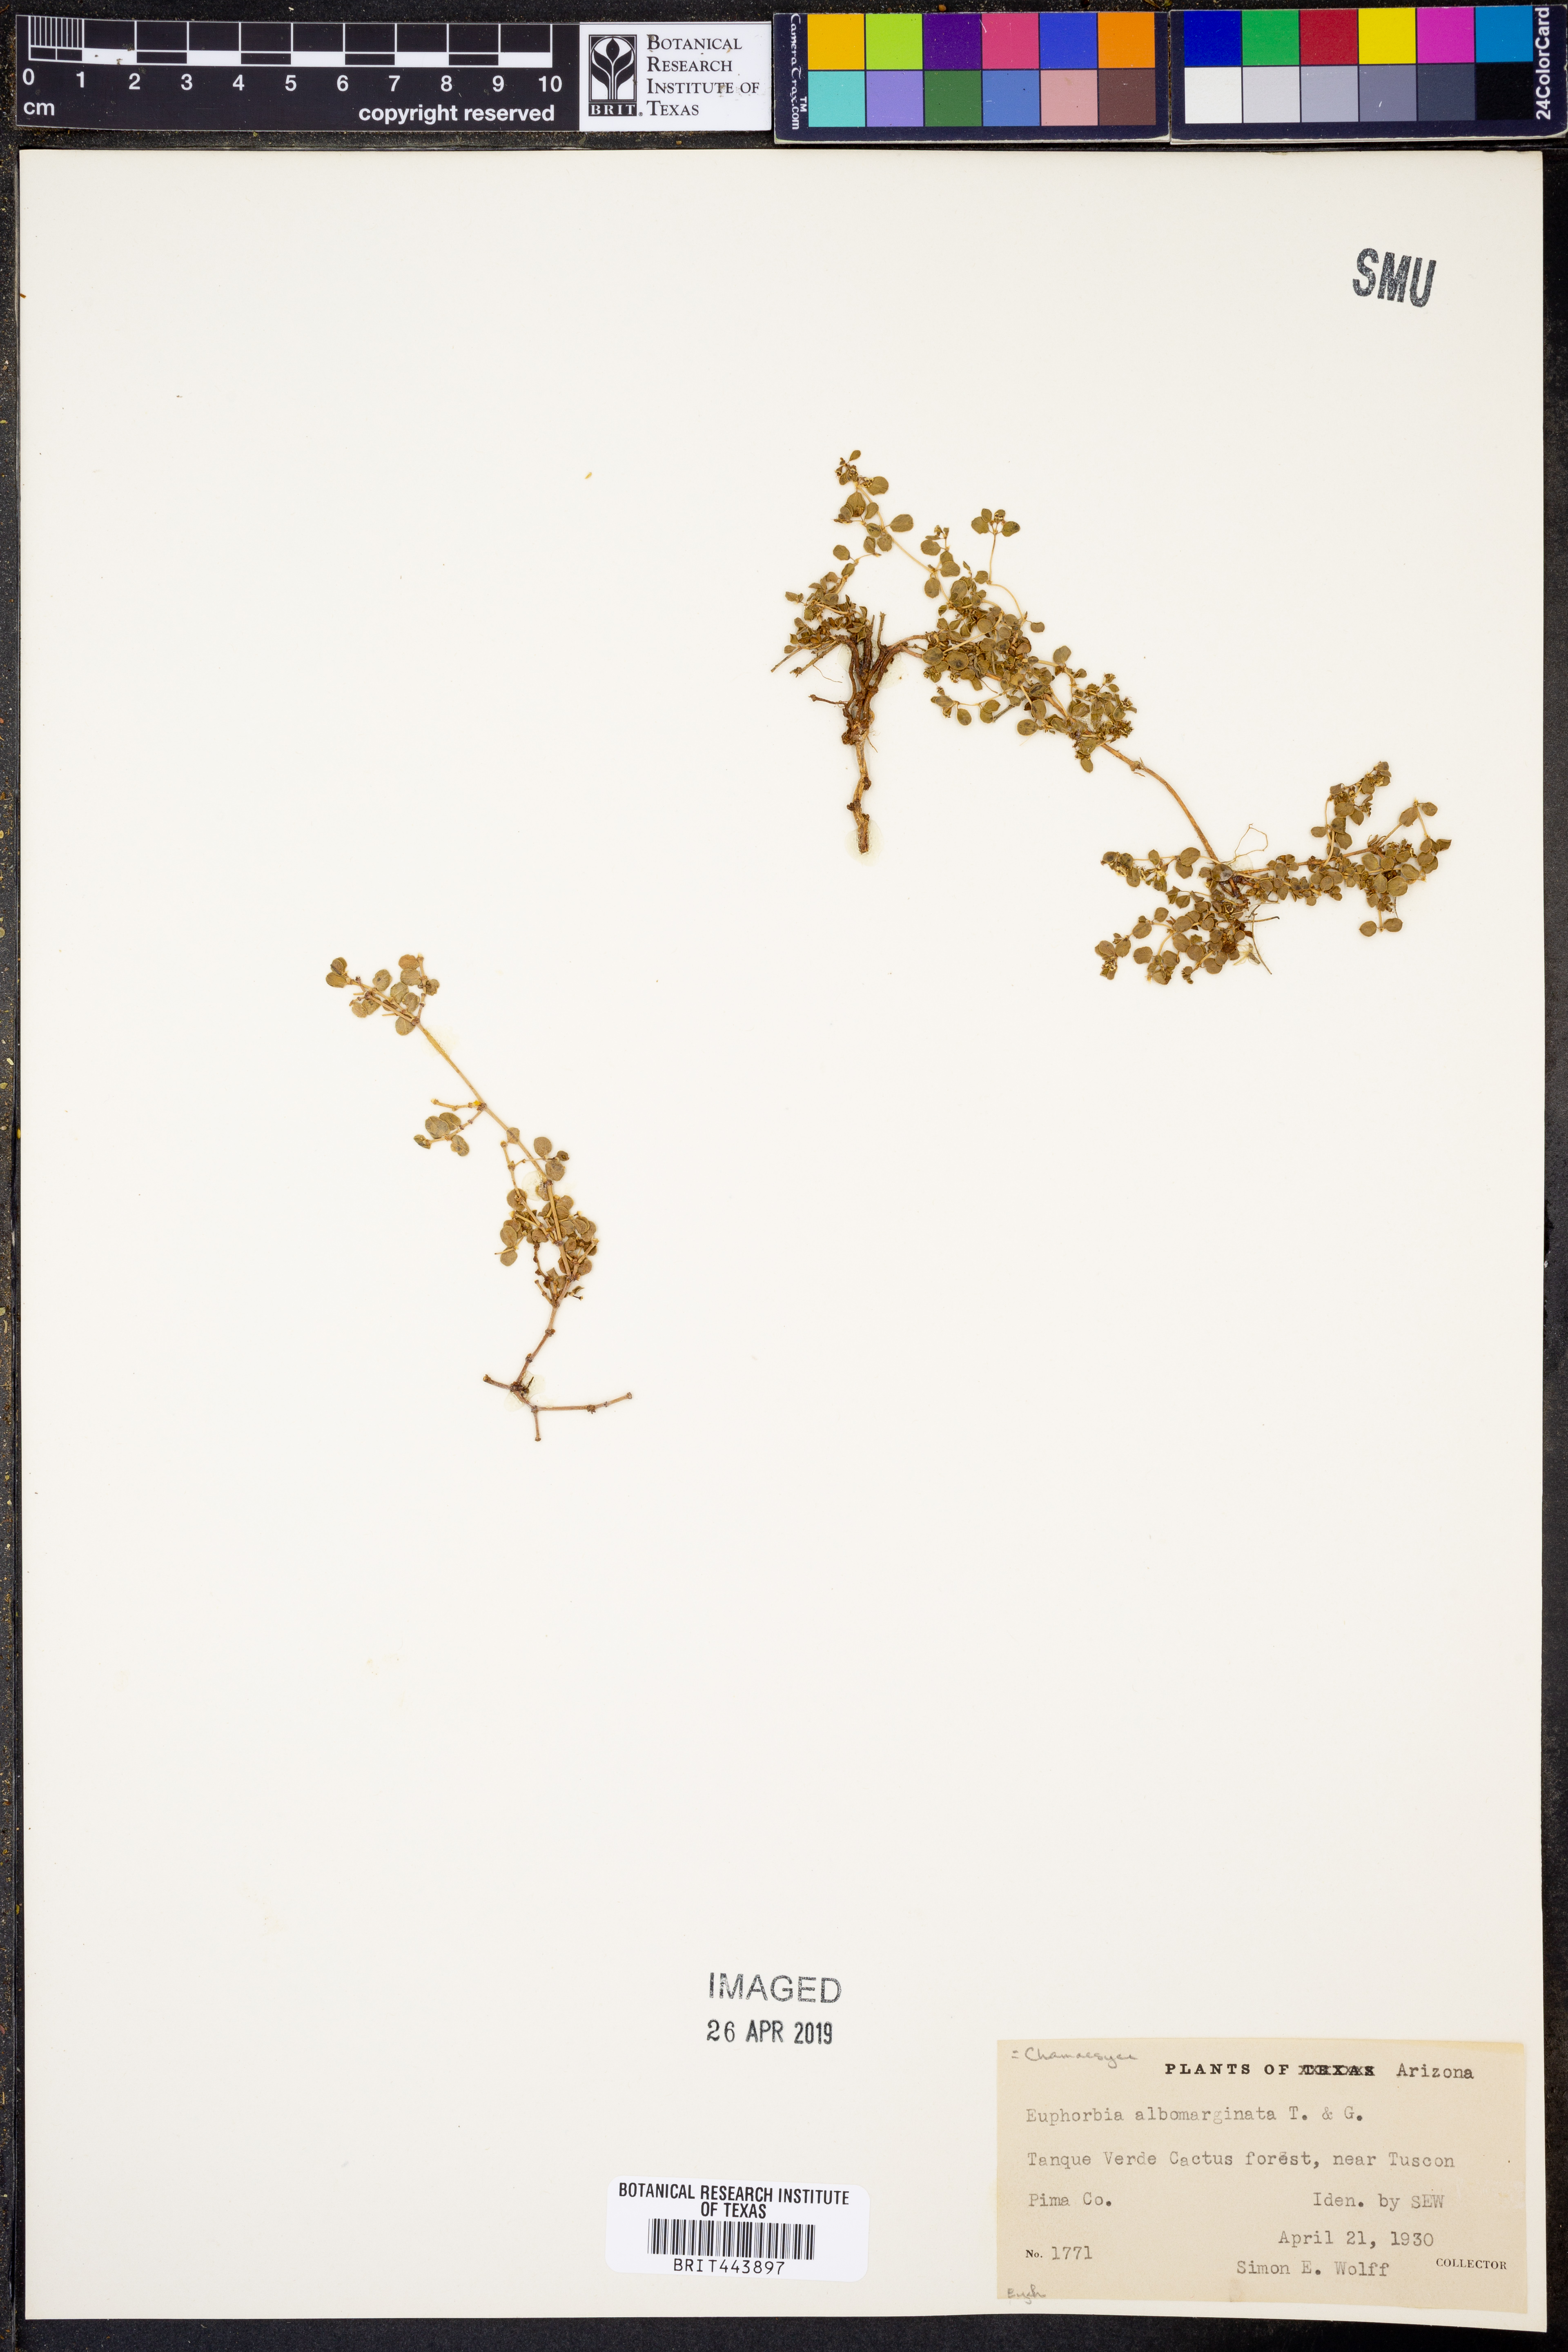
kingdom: Plantae
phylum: Tracheophyta
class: Magnoliopsida
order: Malpighiales
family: Euphorbiaceae
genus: Euphorbia
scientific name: Euphorbia albomarginata
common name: Whitemargin sandmat
